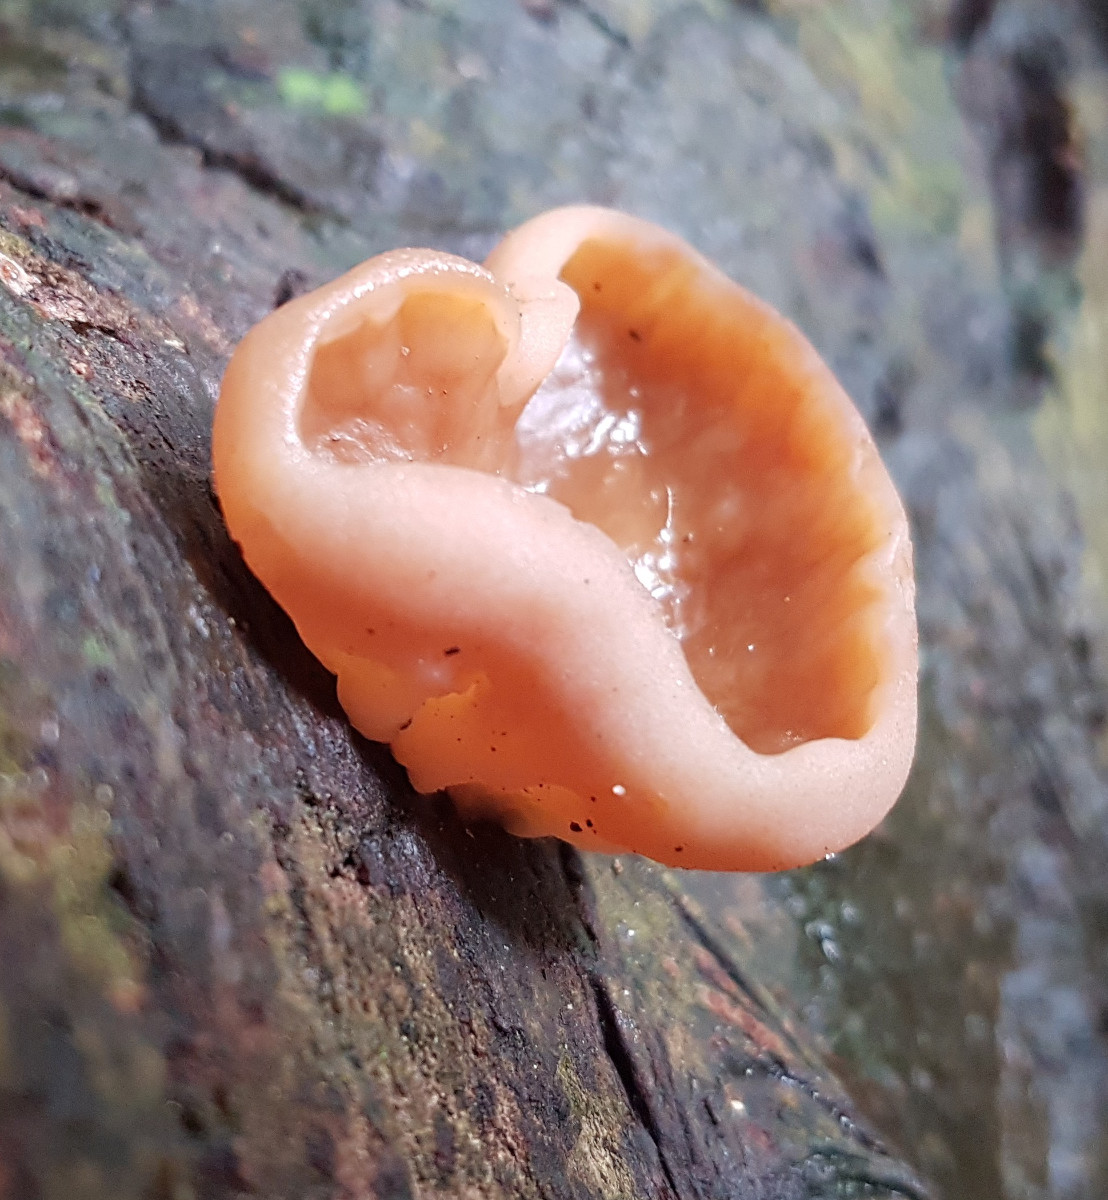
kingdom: Fungi
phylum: Ascomycota
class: Pezizomycetes
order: Pezizales
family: Discinaceae
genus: Discina
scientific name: Discina ancilis
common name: udbredt stenmorkel
